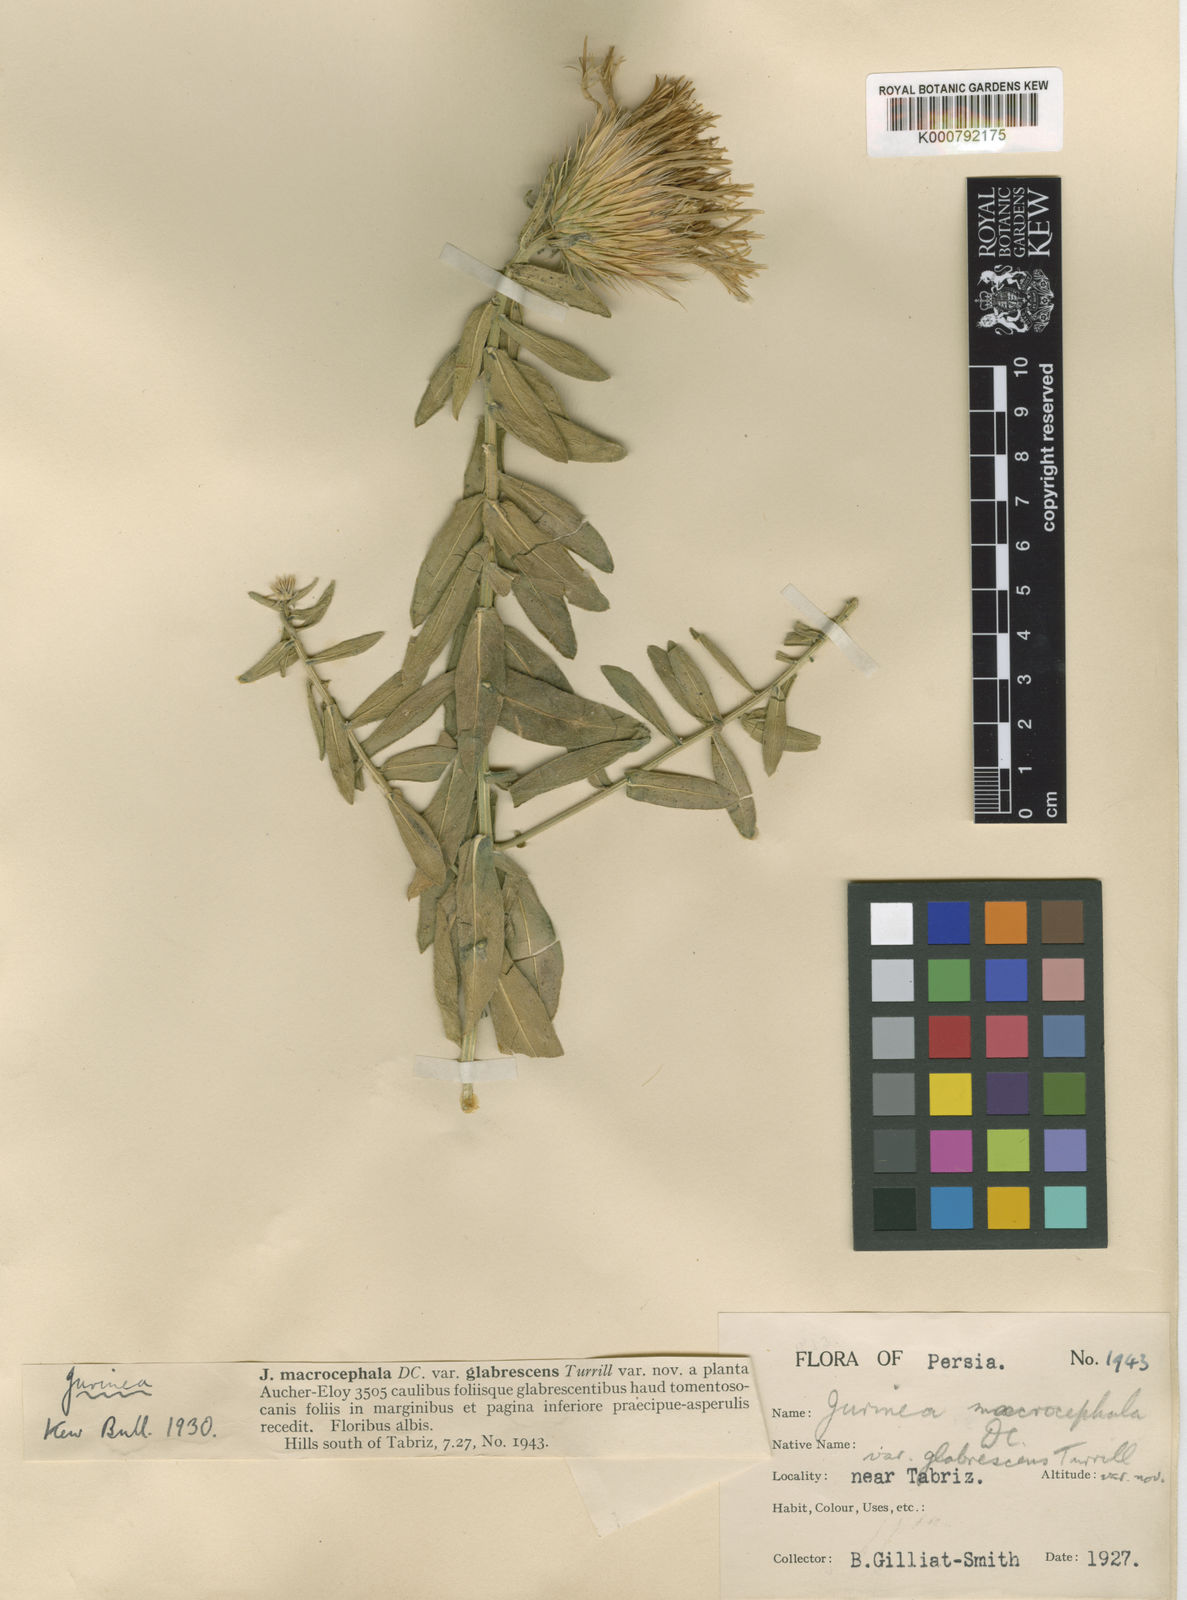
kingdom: Plantae
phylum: Tracheophyta
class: Magnoliopsida
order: Asterales
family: Asteraceae
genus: Jurinea
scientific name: Jurinea macrocephala
